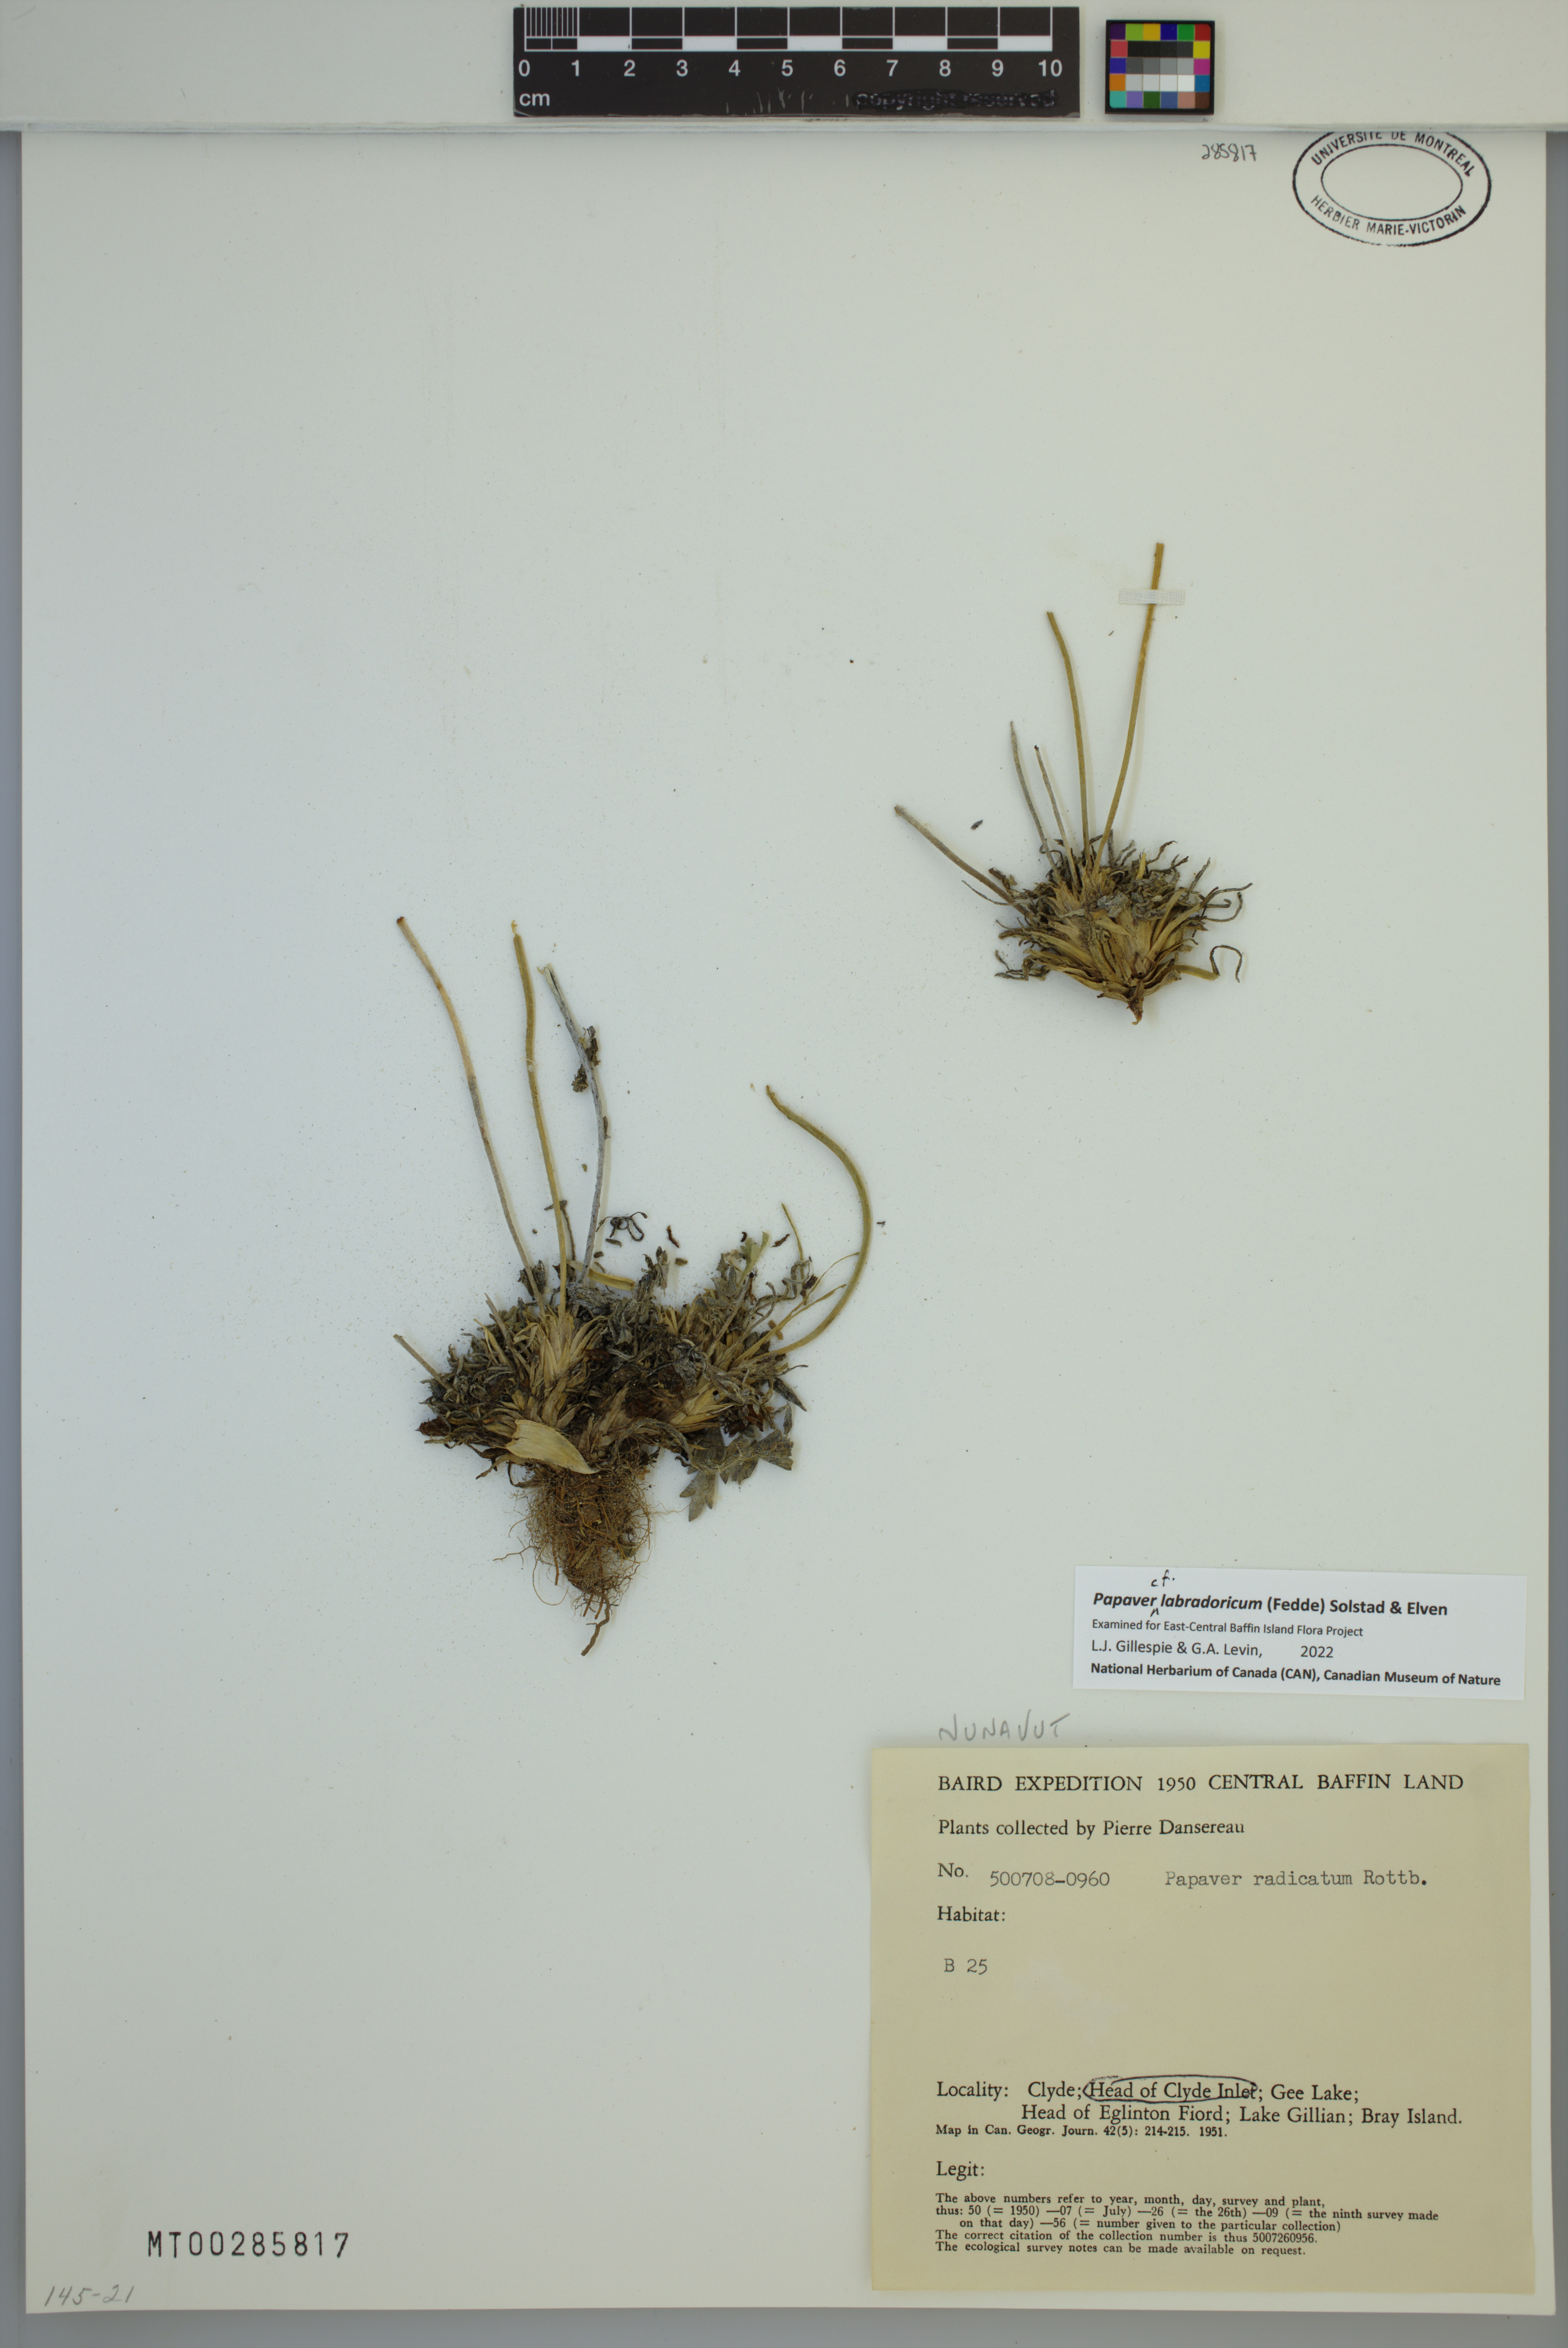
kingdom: Plantae
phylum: Tracheophyta
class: Magnoliopsida
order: Ranunculales
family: Papaveraceae
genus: Papaver
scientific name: Papaver radicatum
